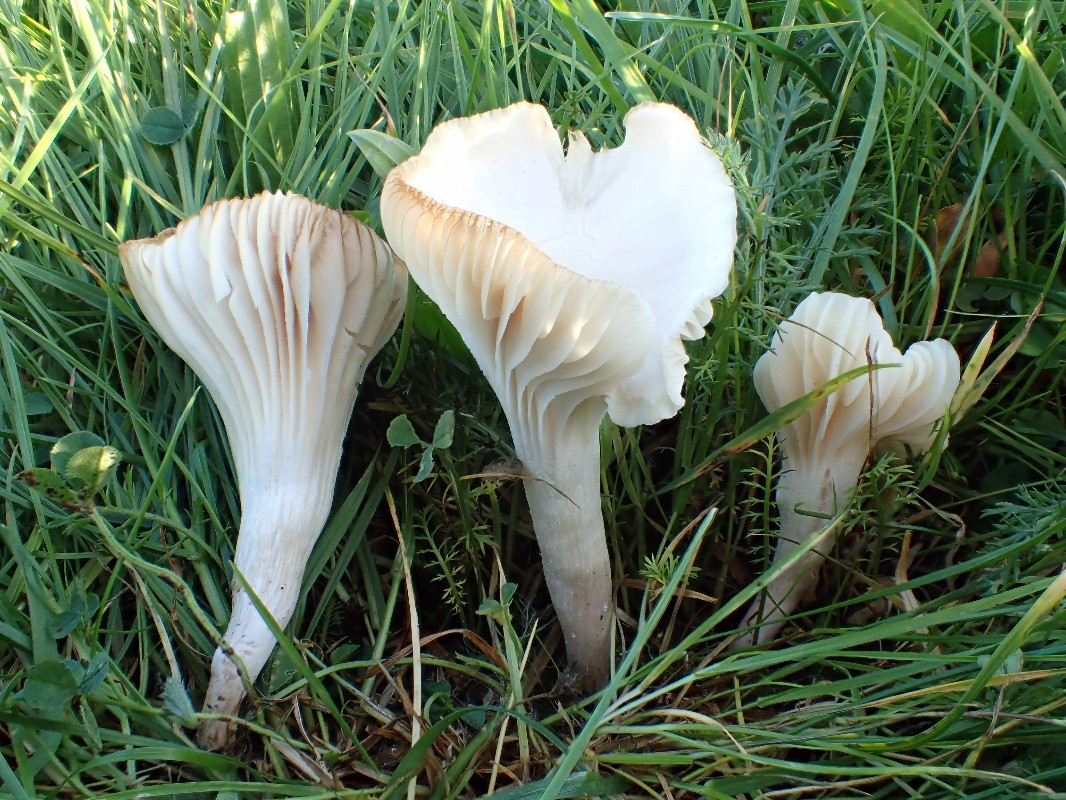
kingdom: Fungi
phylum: Basidiomycota
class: Agaricomycetes
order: Agaricales
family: Hygrophoraceae
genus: Cuphophyllus
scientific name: Cuphophyllus pratensis
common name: bleg vokshat
